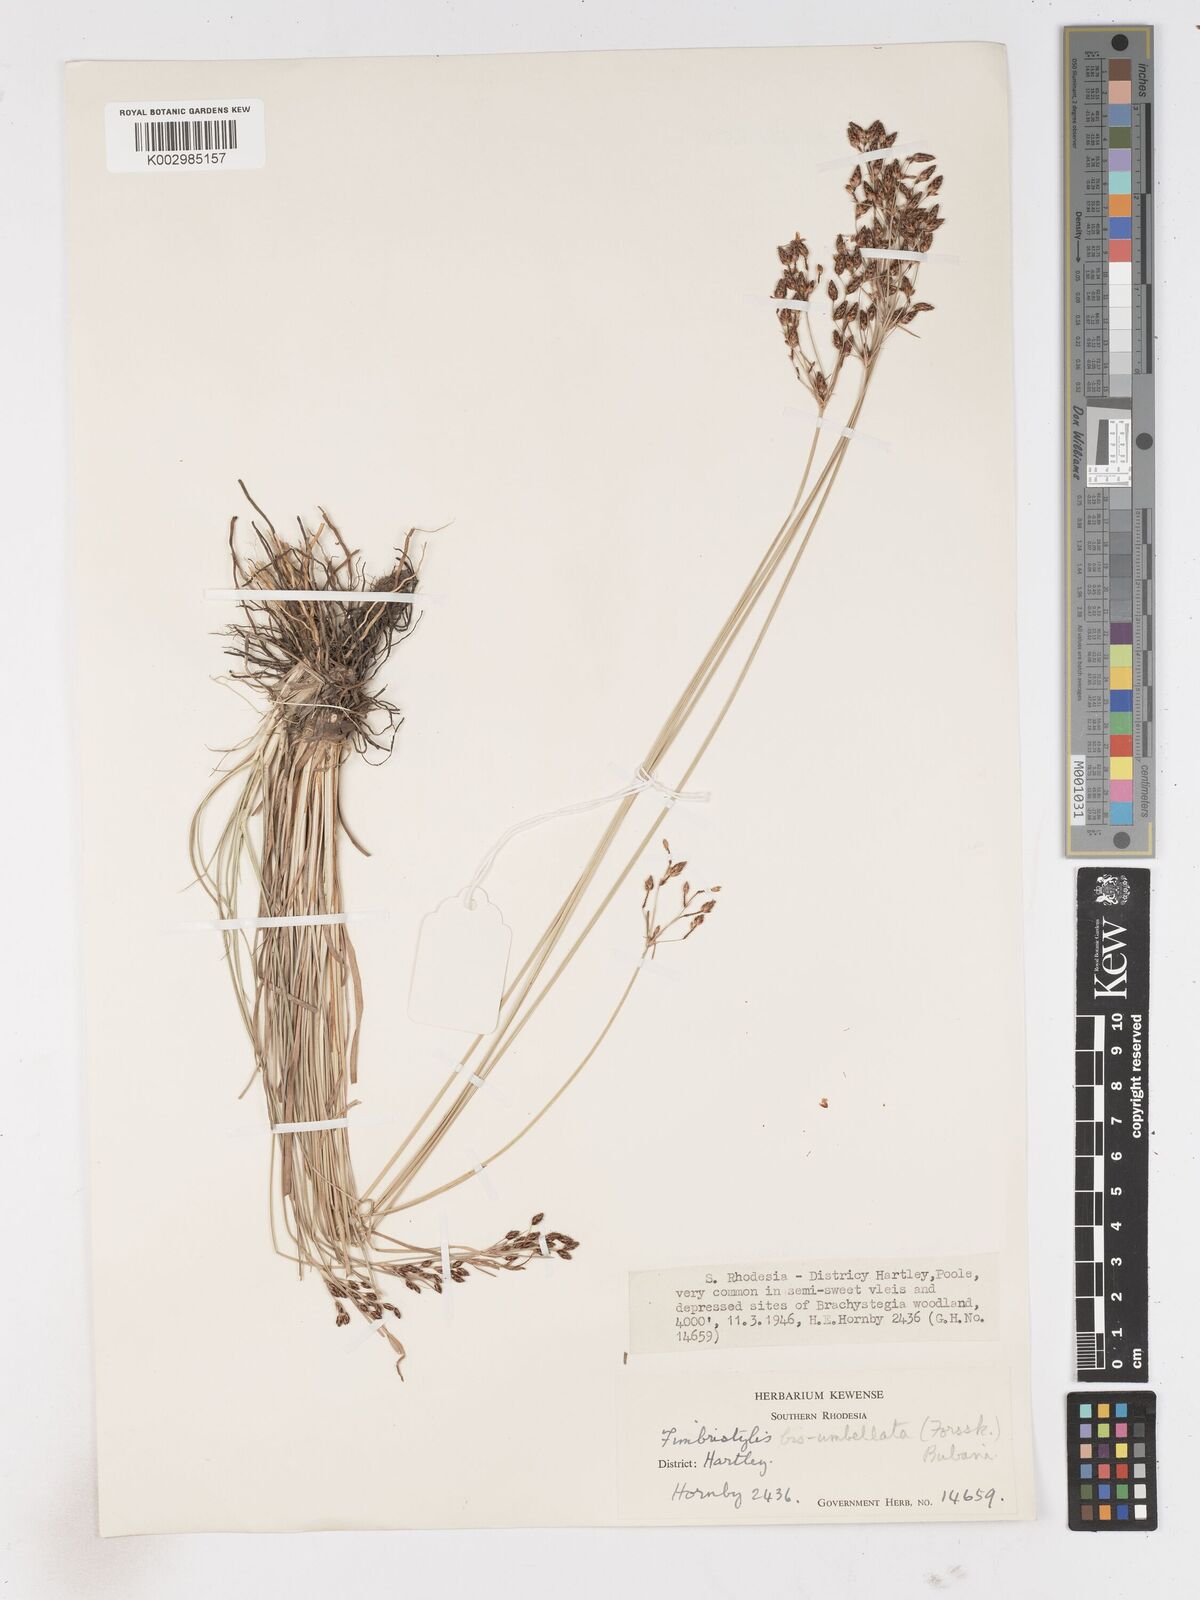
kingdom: Plantae
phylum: Tracheophyta
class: Liliopsida
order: Poales
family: Cyperaceae
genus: Fimbristylis
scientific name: Fimbristylis dichotoma
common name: Forked fimbry
